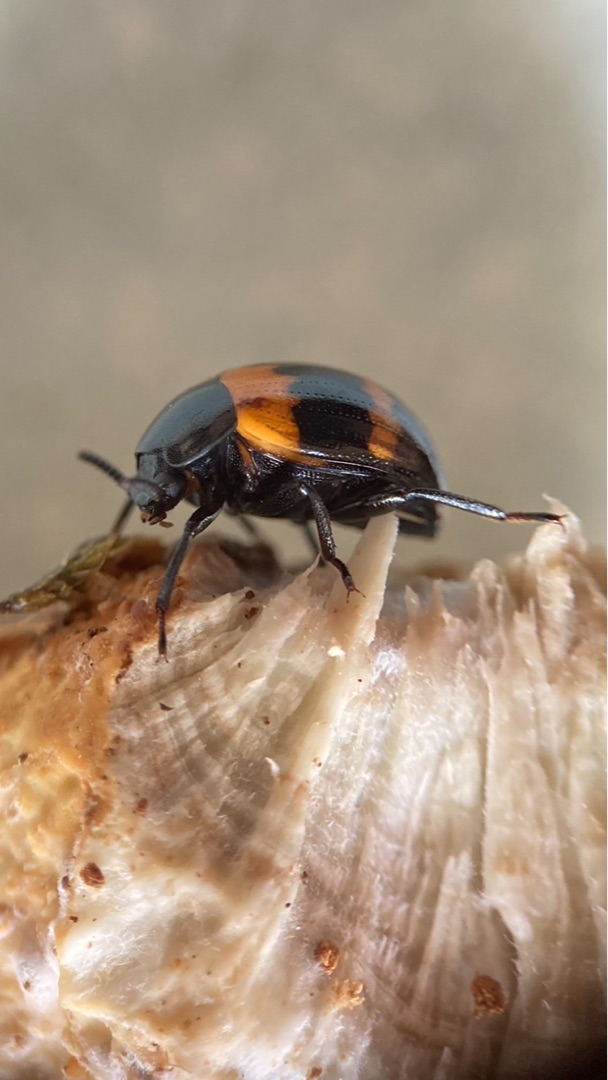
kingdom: Animalia
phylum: Arthropoda
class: Insecta
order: Coleoptera
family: Tenebrionidae
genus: Diaperis
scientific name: Diaperis boleti
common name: Tigerskyggebille
